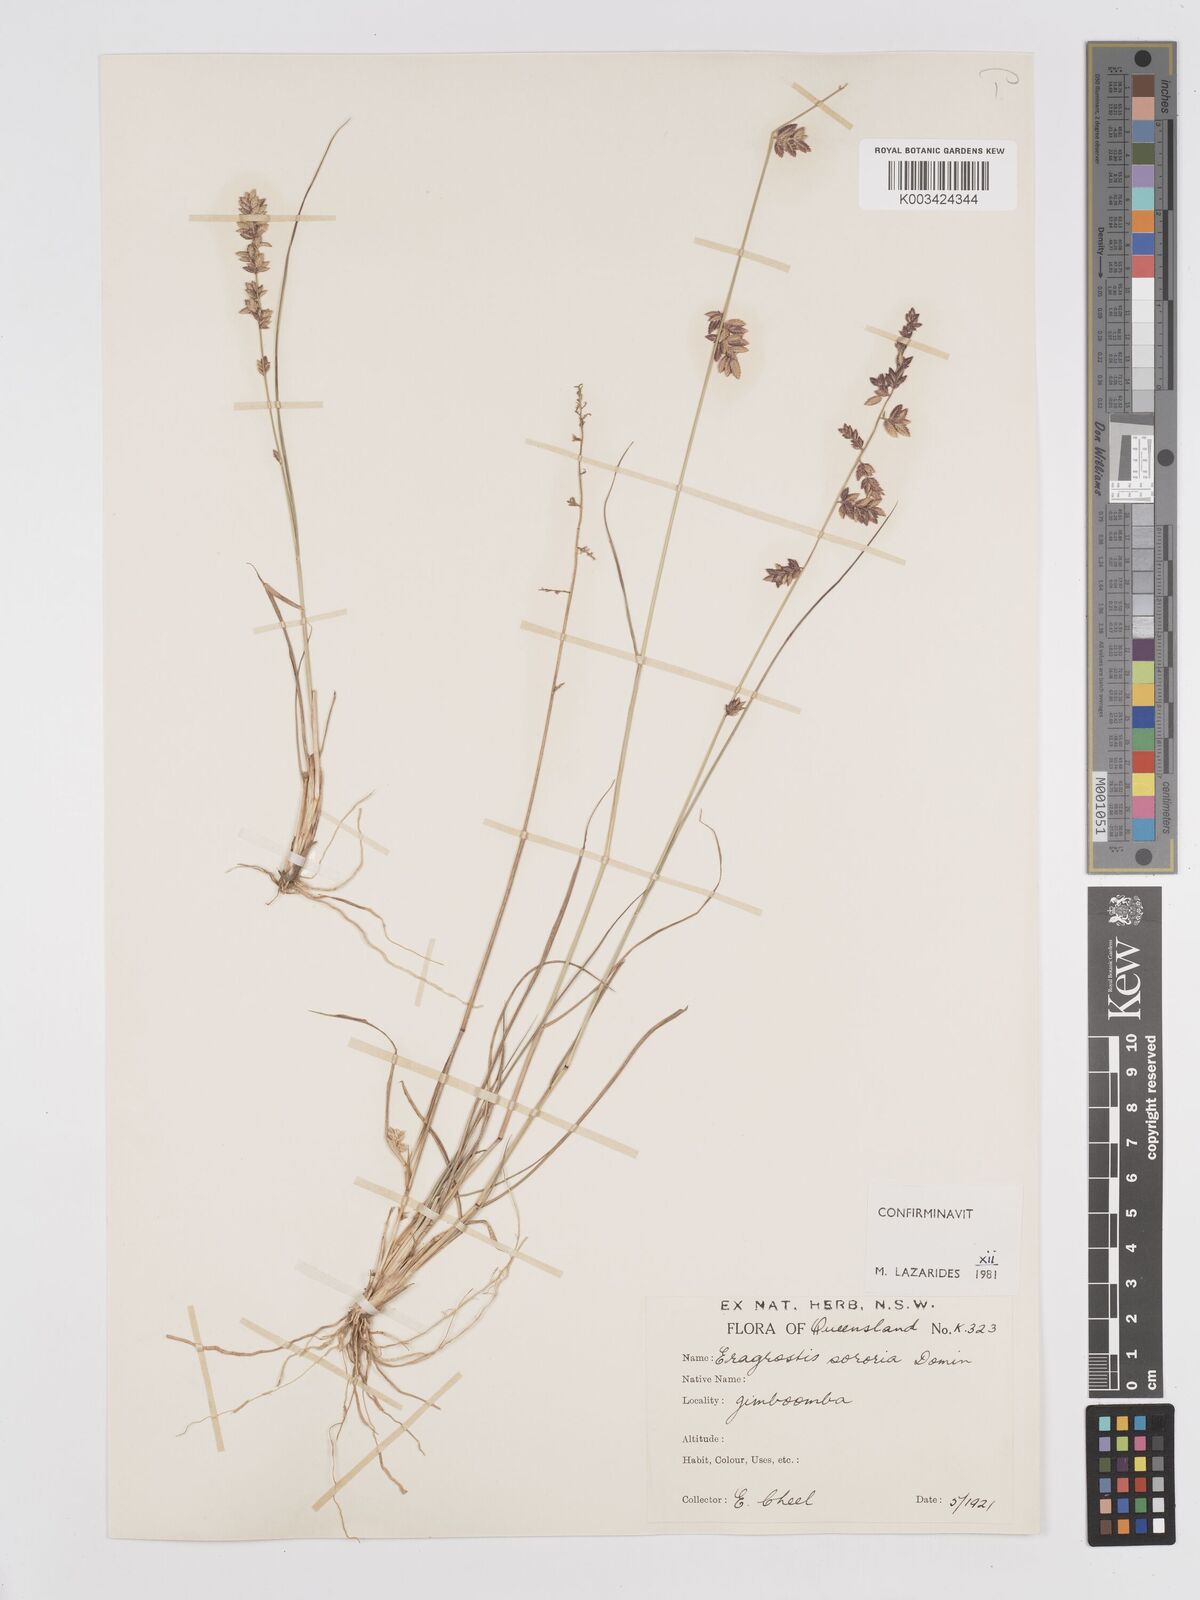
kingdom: Plantae
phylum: Tracheophyta
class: Liliopsida
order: Poales
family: Poaceae
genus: Eragrostis
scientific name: Eragrostis sororia
